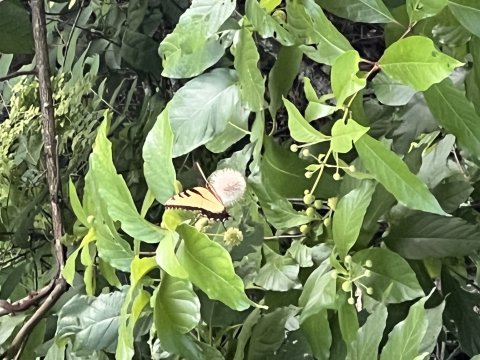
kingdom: Animalia
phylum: Arthropoda
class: Insecta
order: Lepidoptera
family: Papilionidae
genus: Pterourus
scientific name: Pterourus glaucus
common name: Eastern Tiger Swallowtail
